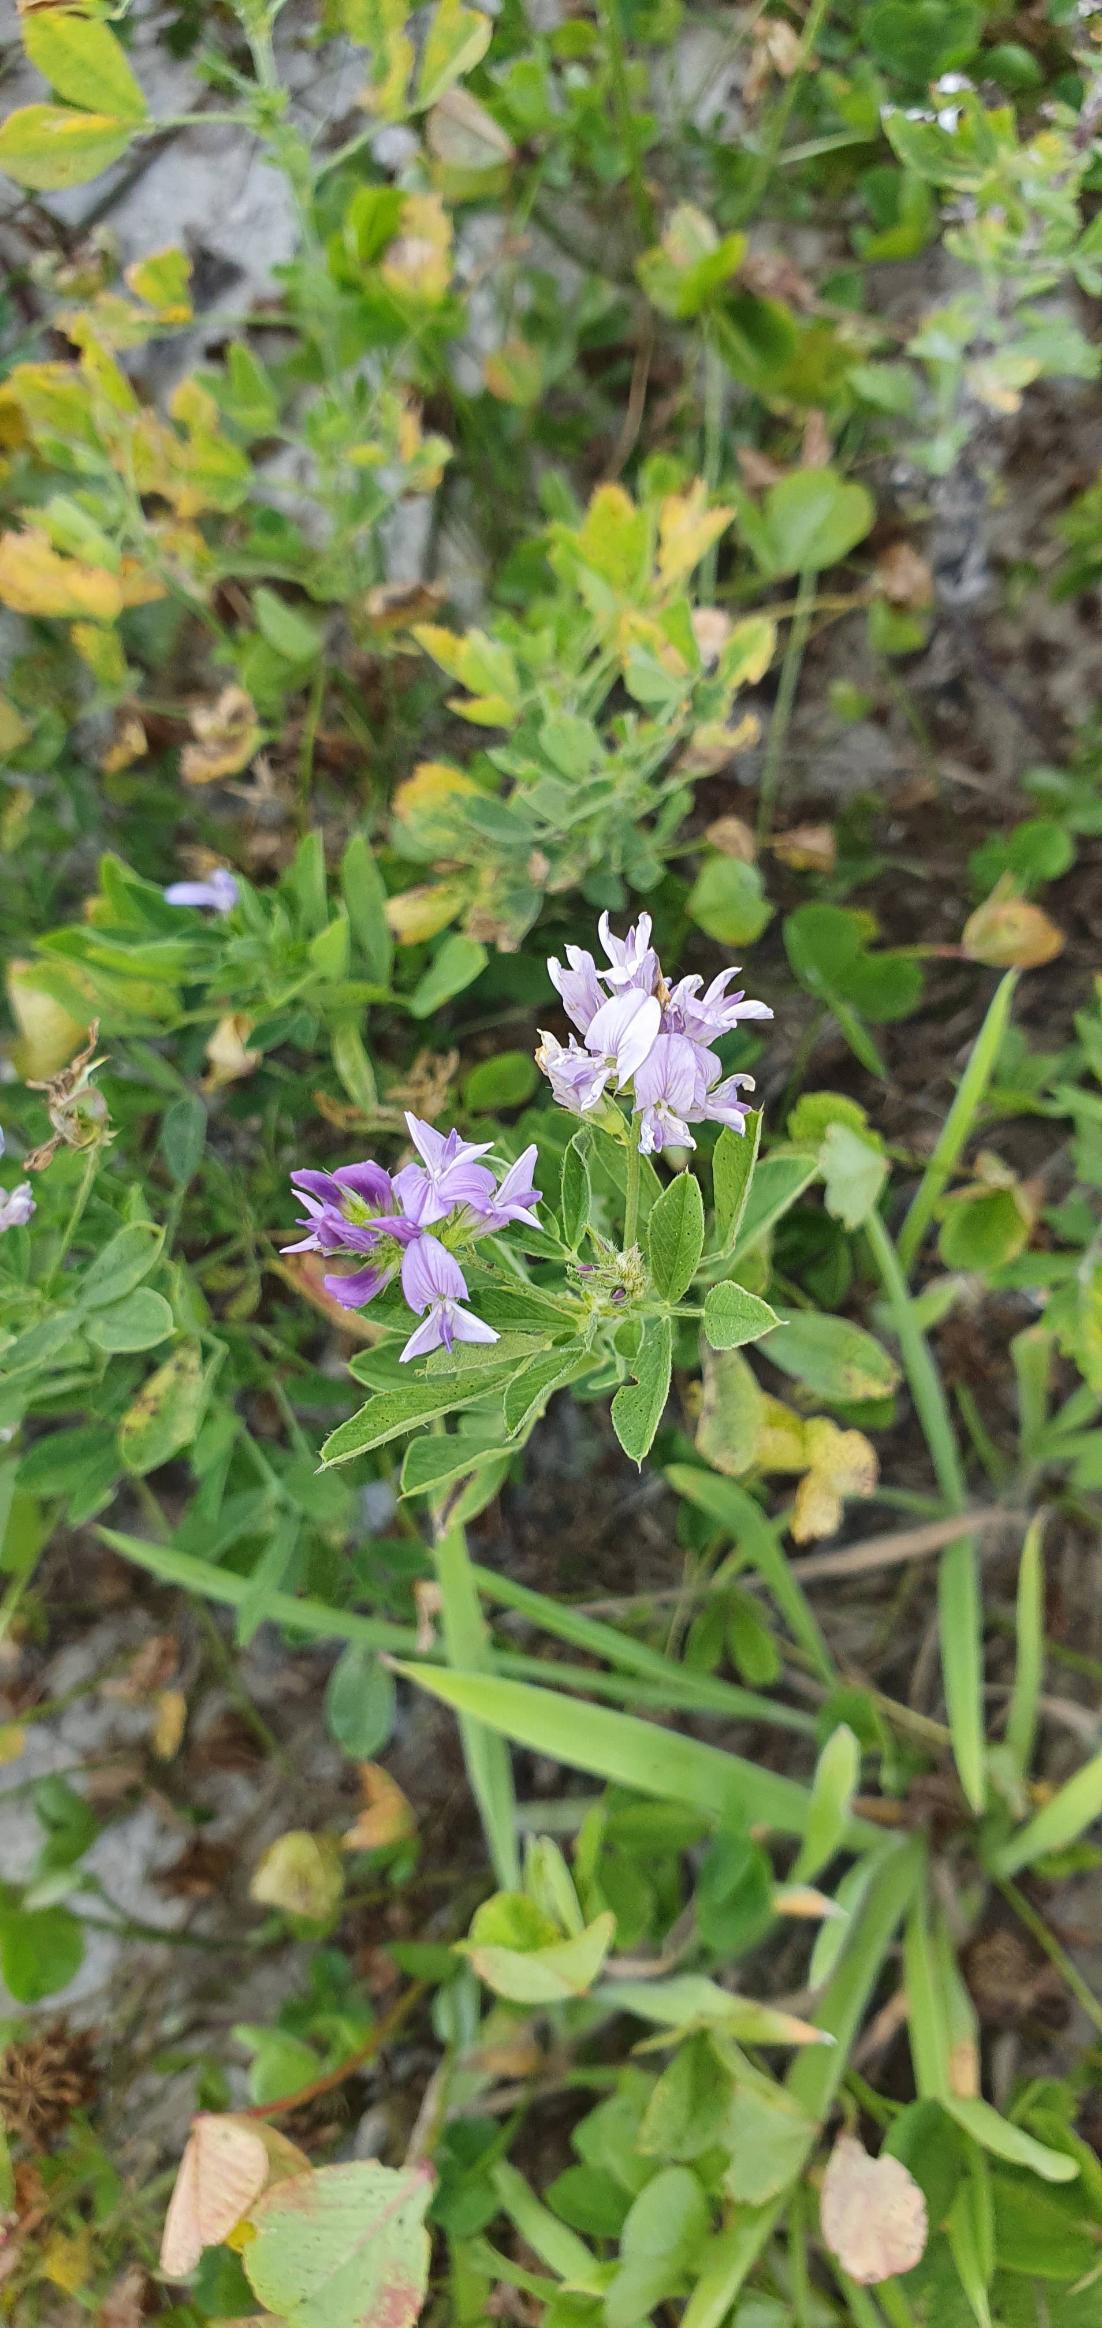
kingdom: Plantae
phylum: Tracheophyta
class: Magnoliopsida
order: Fabales
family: Fabaceae
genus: Medicago
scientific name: Medicago sativa
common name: Lucerne
